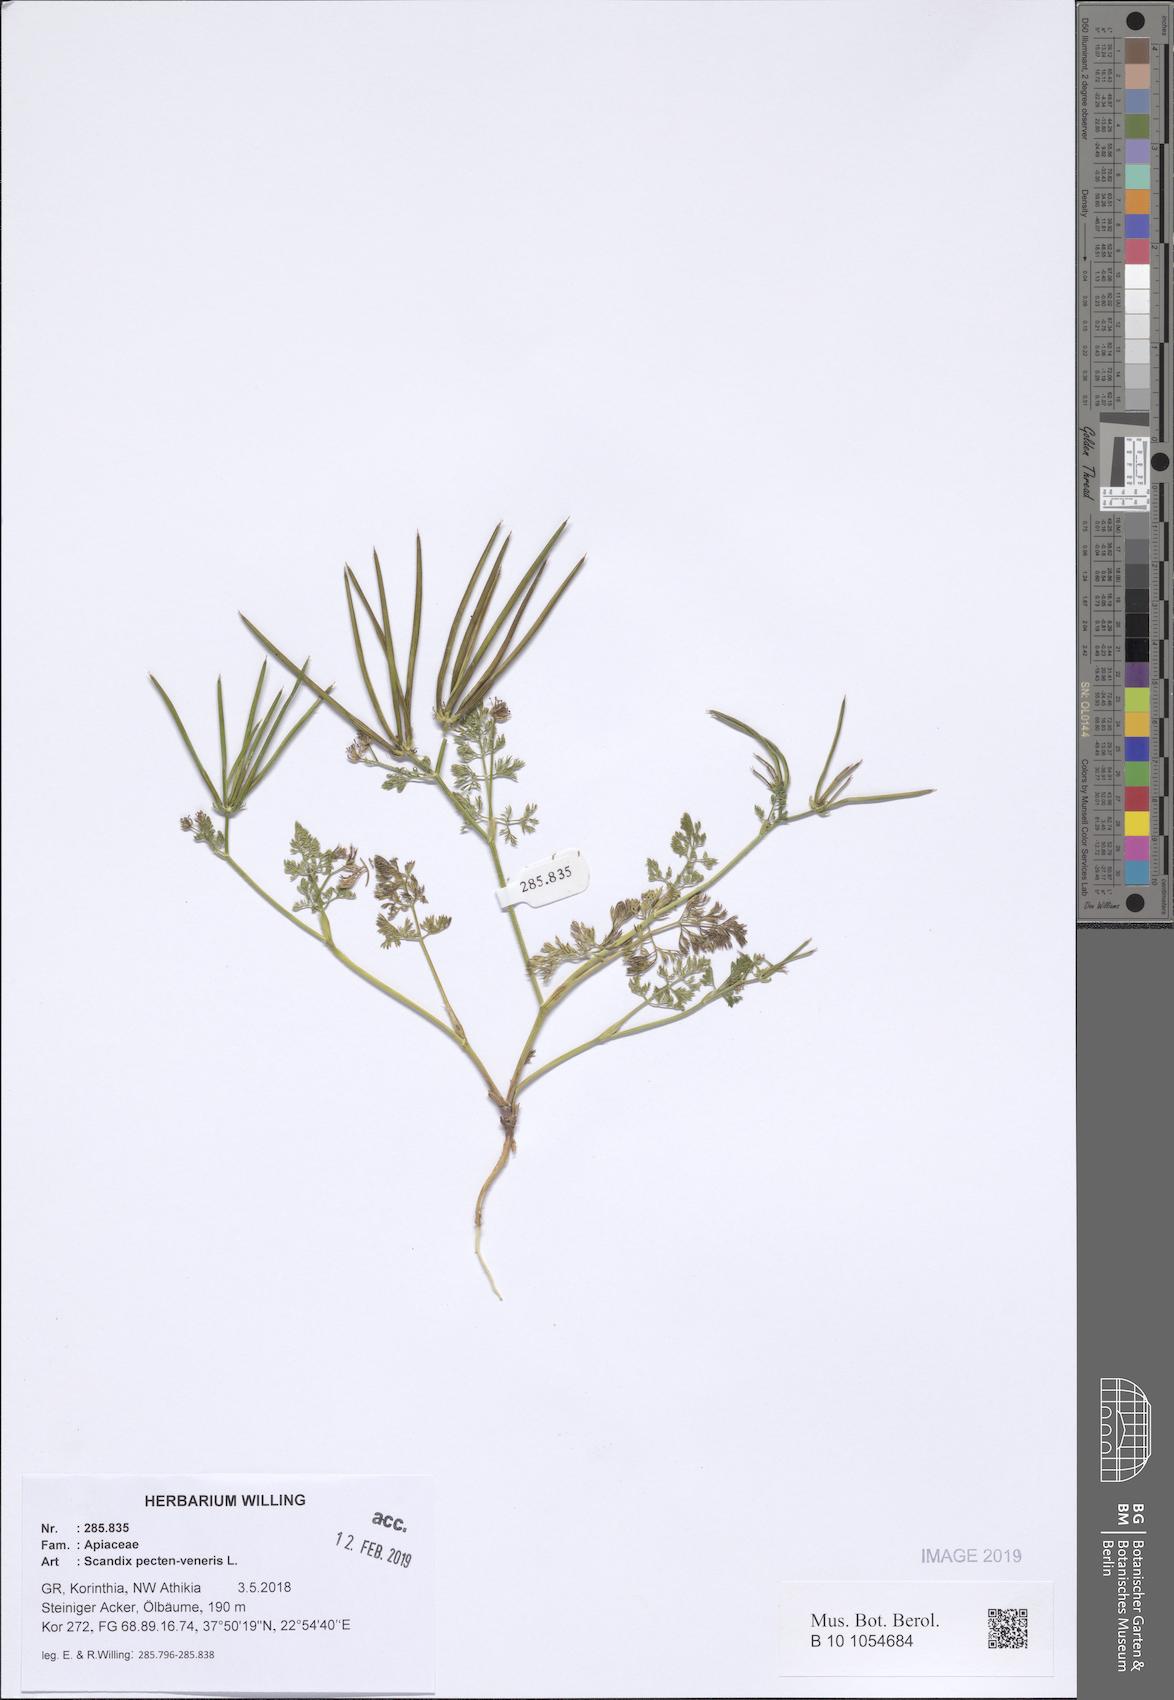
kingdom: Plantae
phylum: Tracheophyta
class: Magnoliopsida
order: Apiales
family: Apiaceae
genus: Scandix
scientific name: Scandix pecten-veneris
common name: Shepherd's-needle
